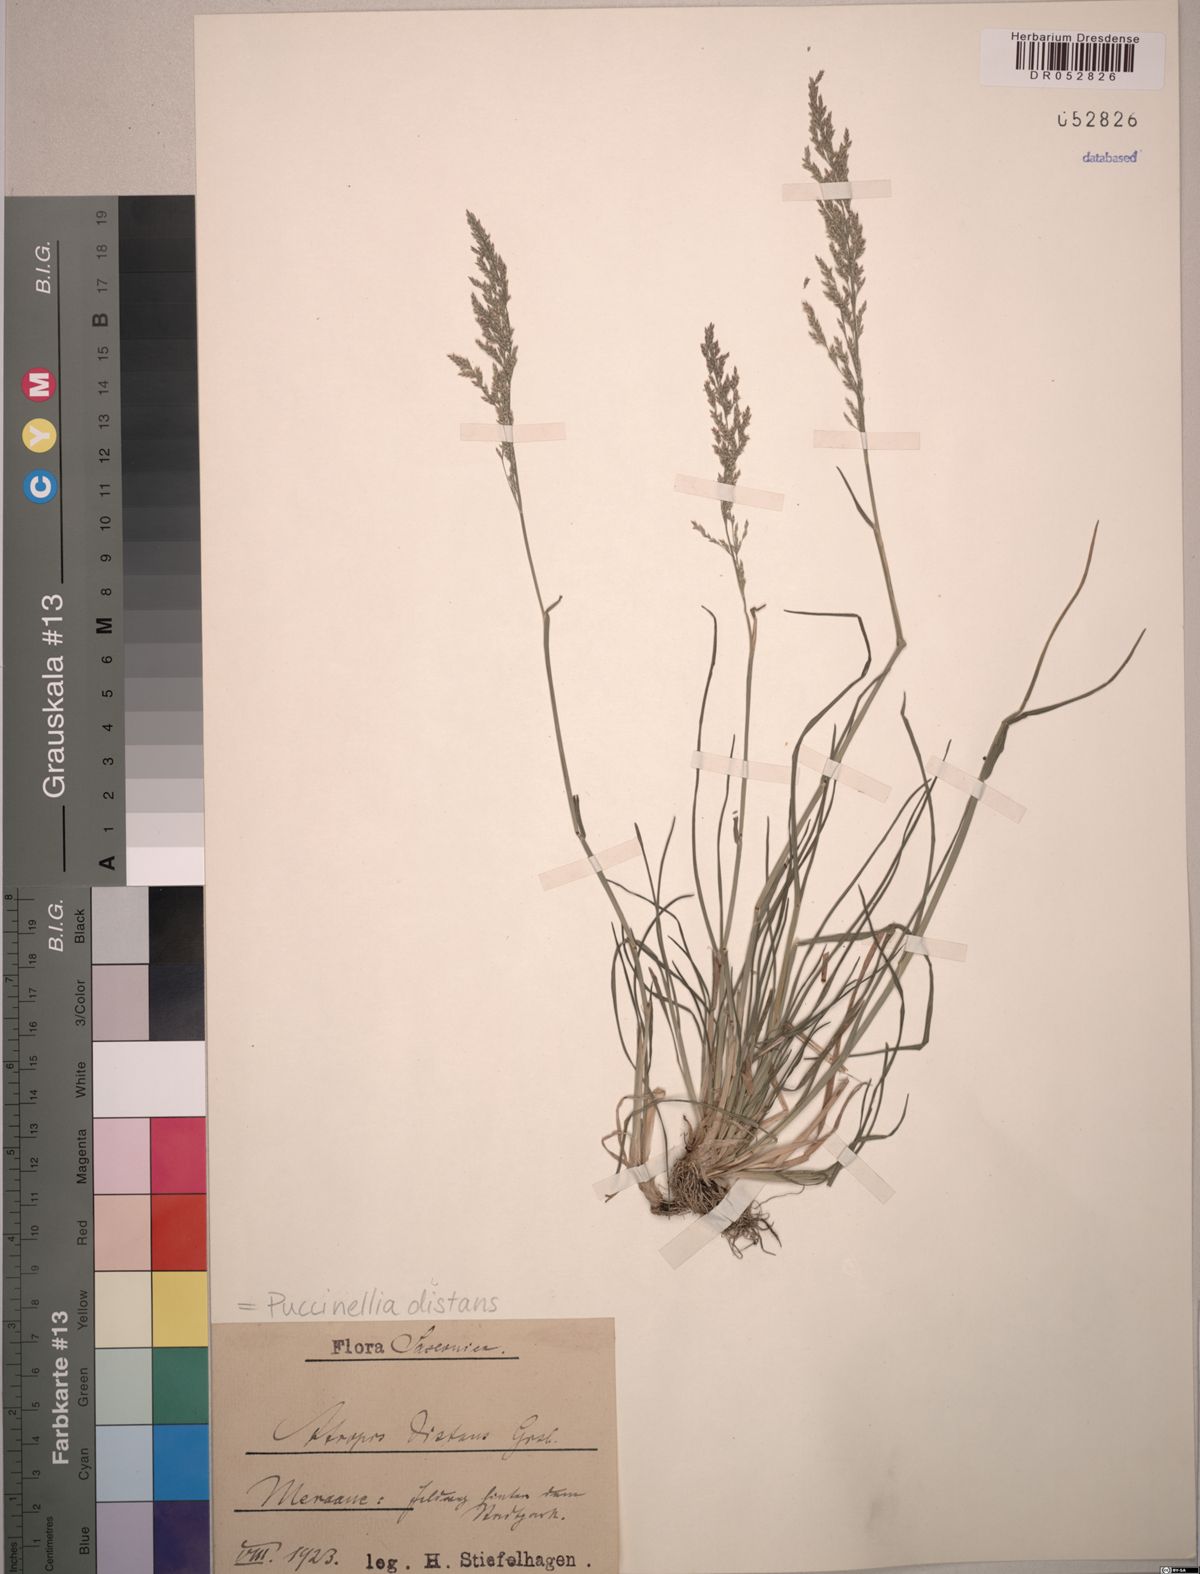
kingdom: Plantae
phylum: Tracheophyta
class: Liliopsida
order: Poales
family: Poaceae
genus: Puccinellia
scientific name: Puccinellia distans
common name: Weeping alkaligrass
